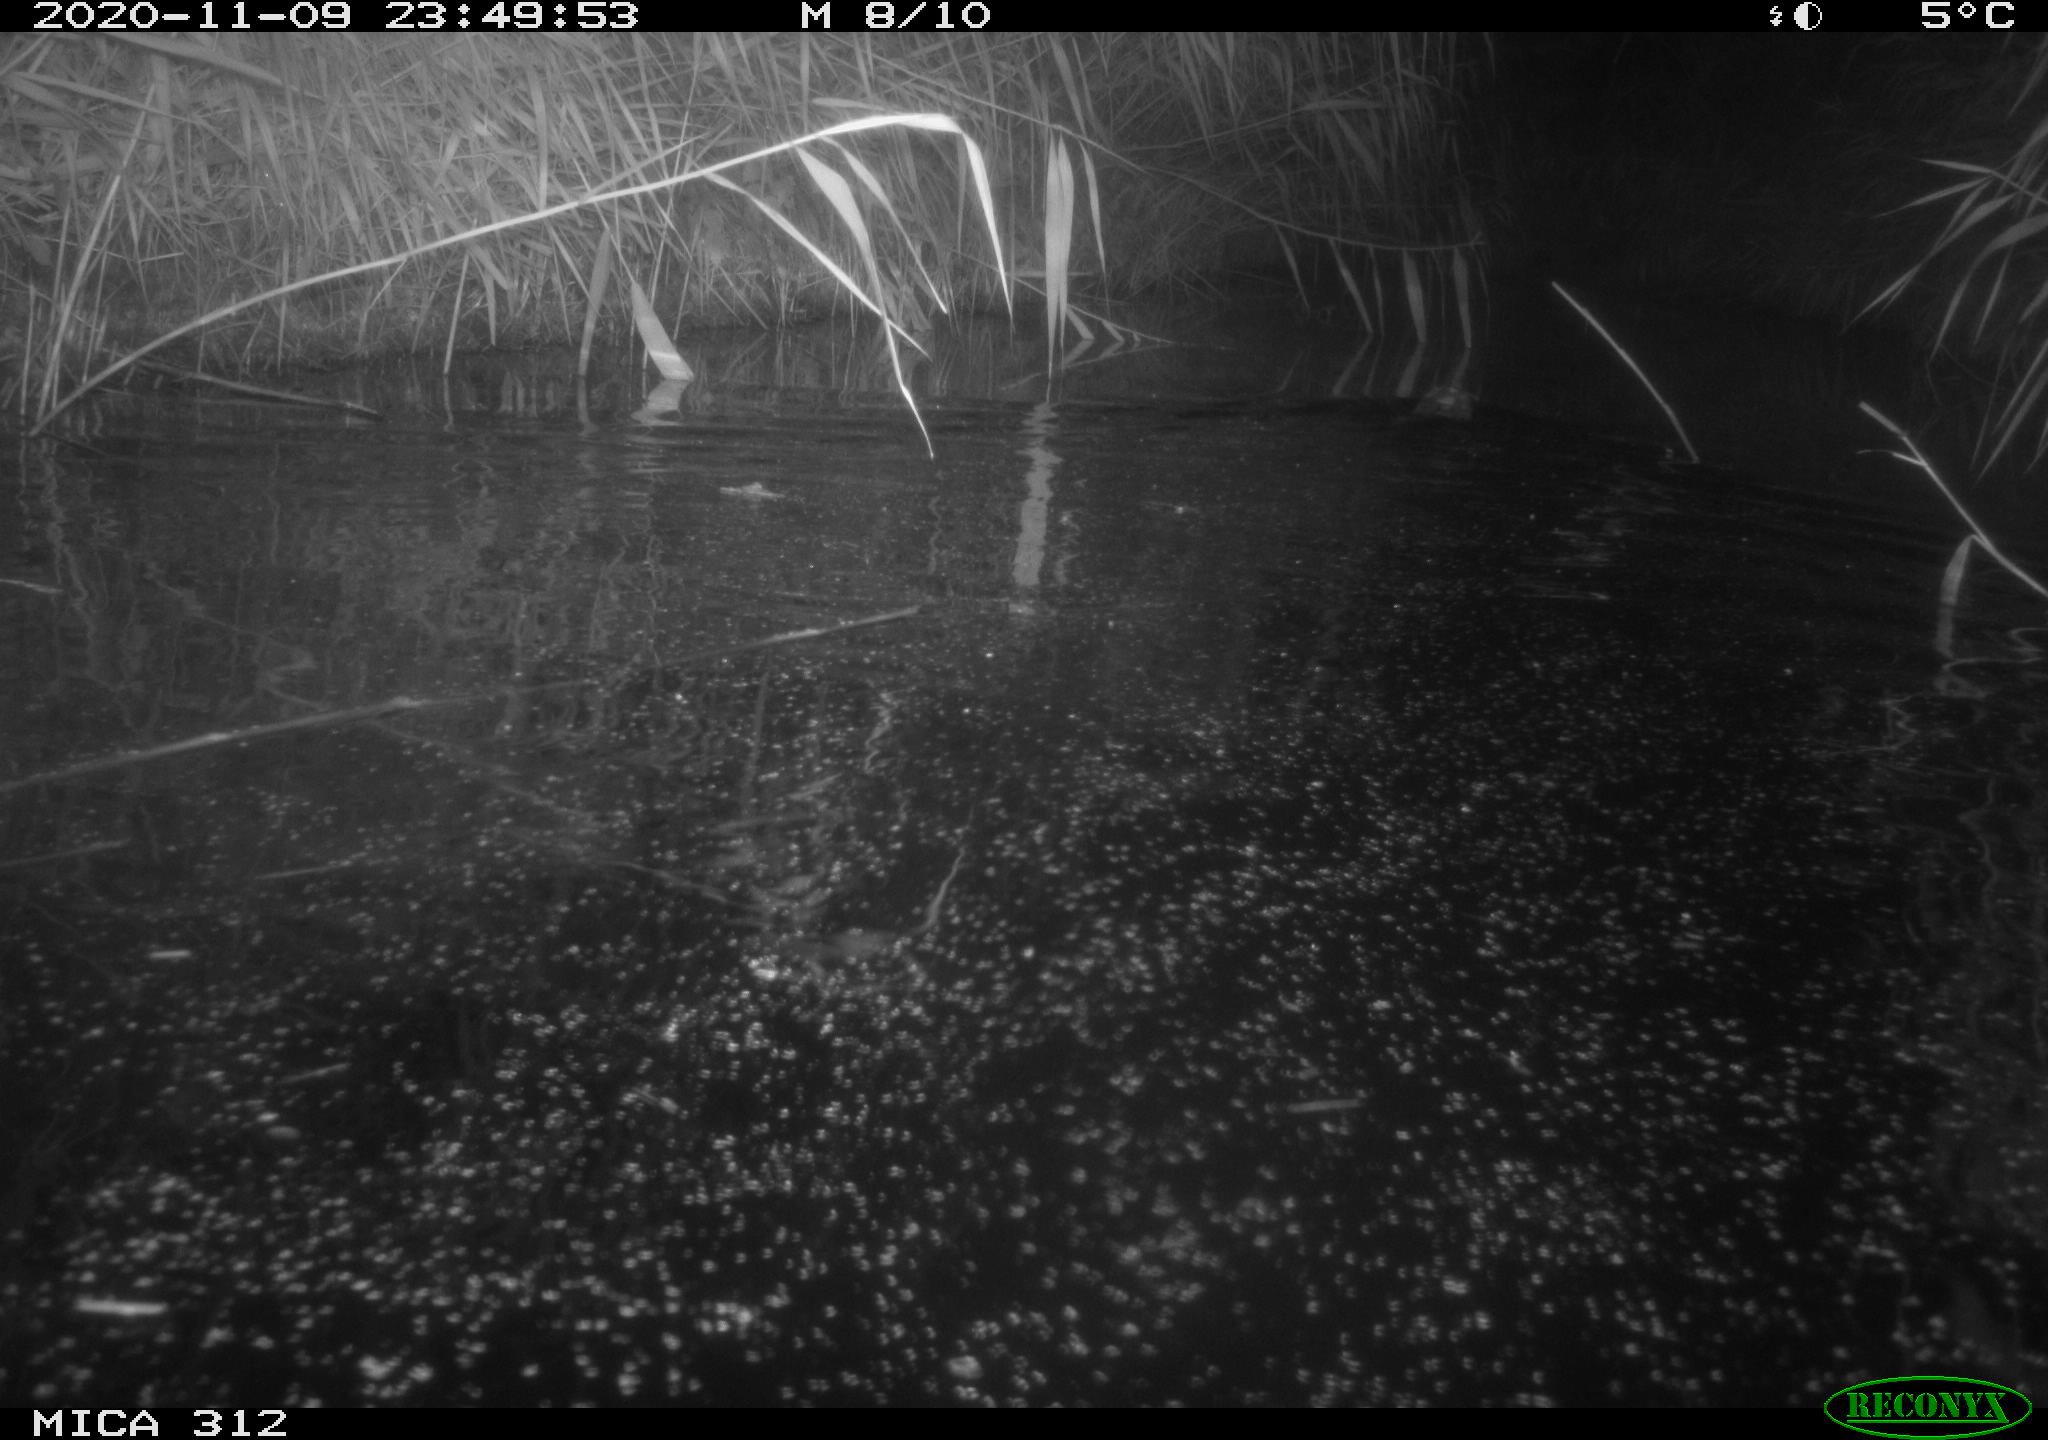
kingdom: Animalia
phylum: Chordata
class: Mammalia
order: Rodentia
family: Cricetidae
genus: Ondatra
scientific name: Ondatra zibethicus
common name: Muskrat
